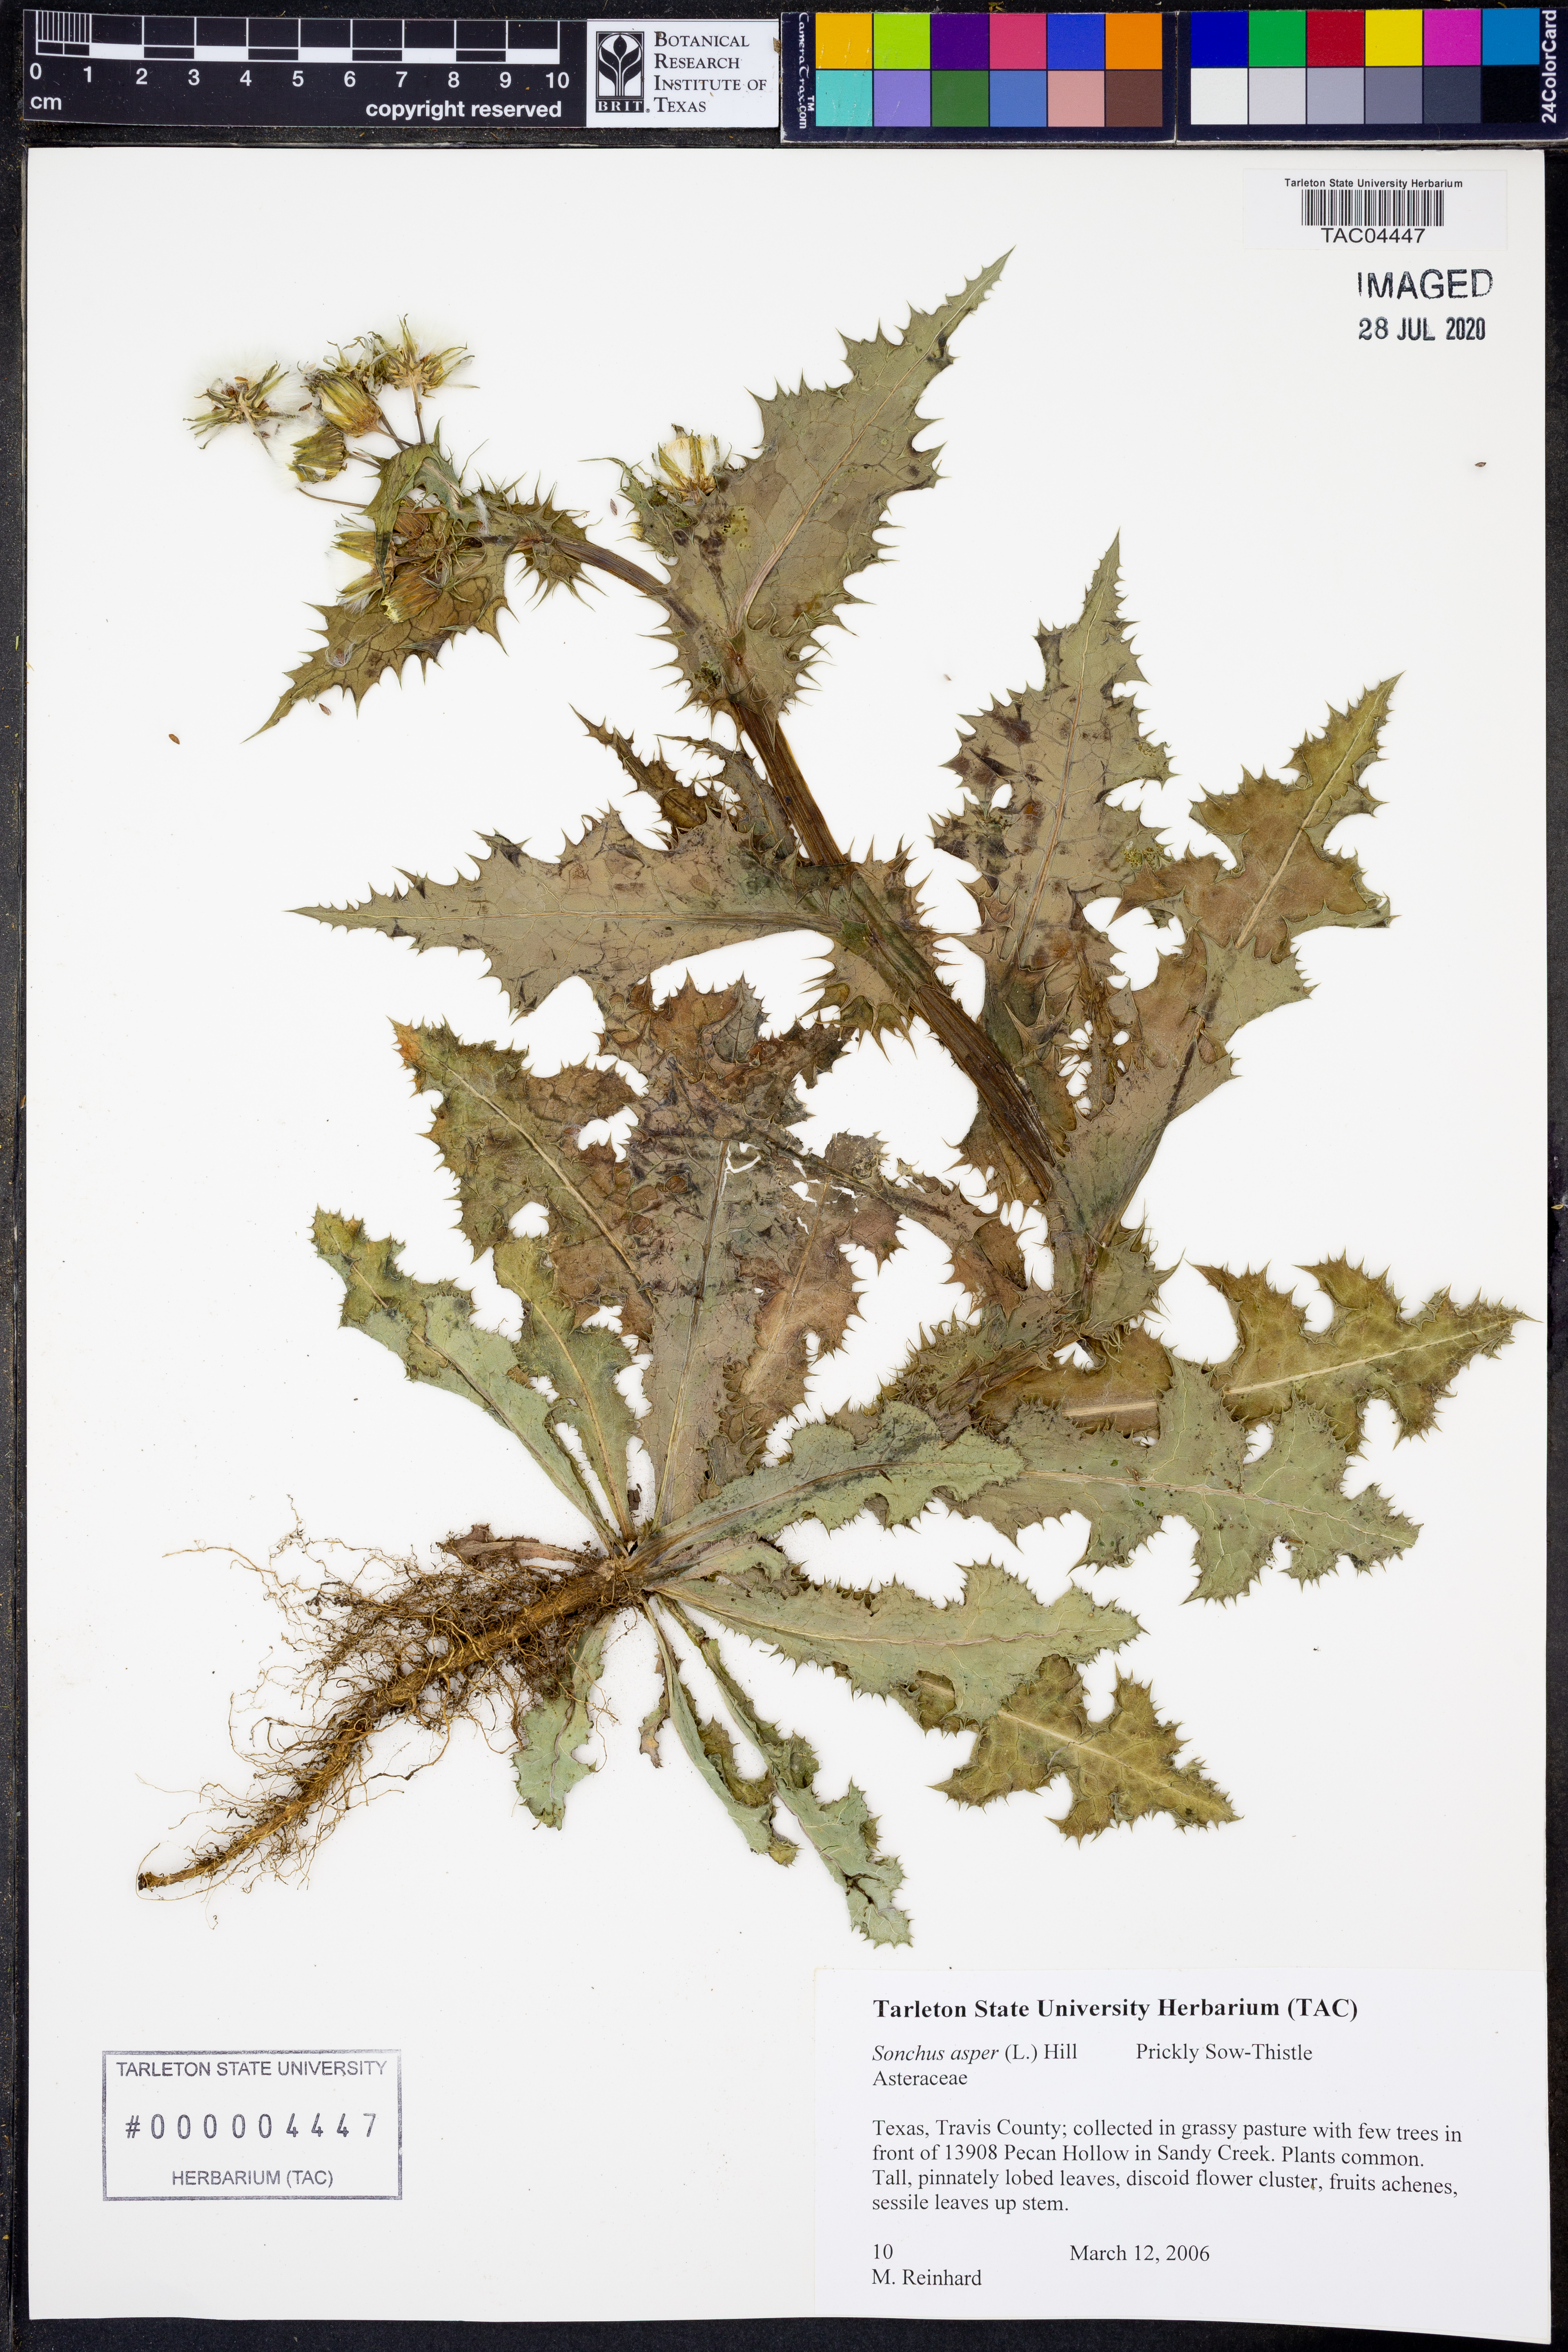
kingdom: Plantae
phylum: Tracheophyta
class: Magnoliopsida
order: Asterales
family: Asteraceae
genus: Sonchus
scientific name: Sonchus asper
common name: Prickly sow-thistle
